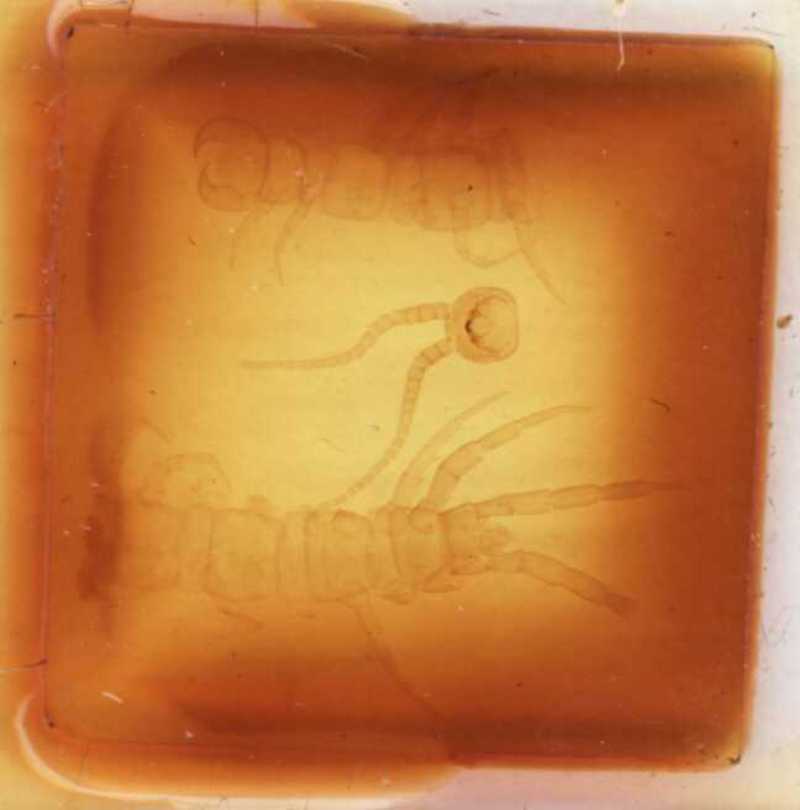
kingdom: Animalia
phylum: Arthropoda
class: Chilopoda
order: Lithobiomorpha
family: Lithobiidae
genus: Lithobius
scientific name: Lithobius sachalinus
